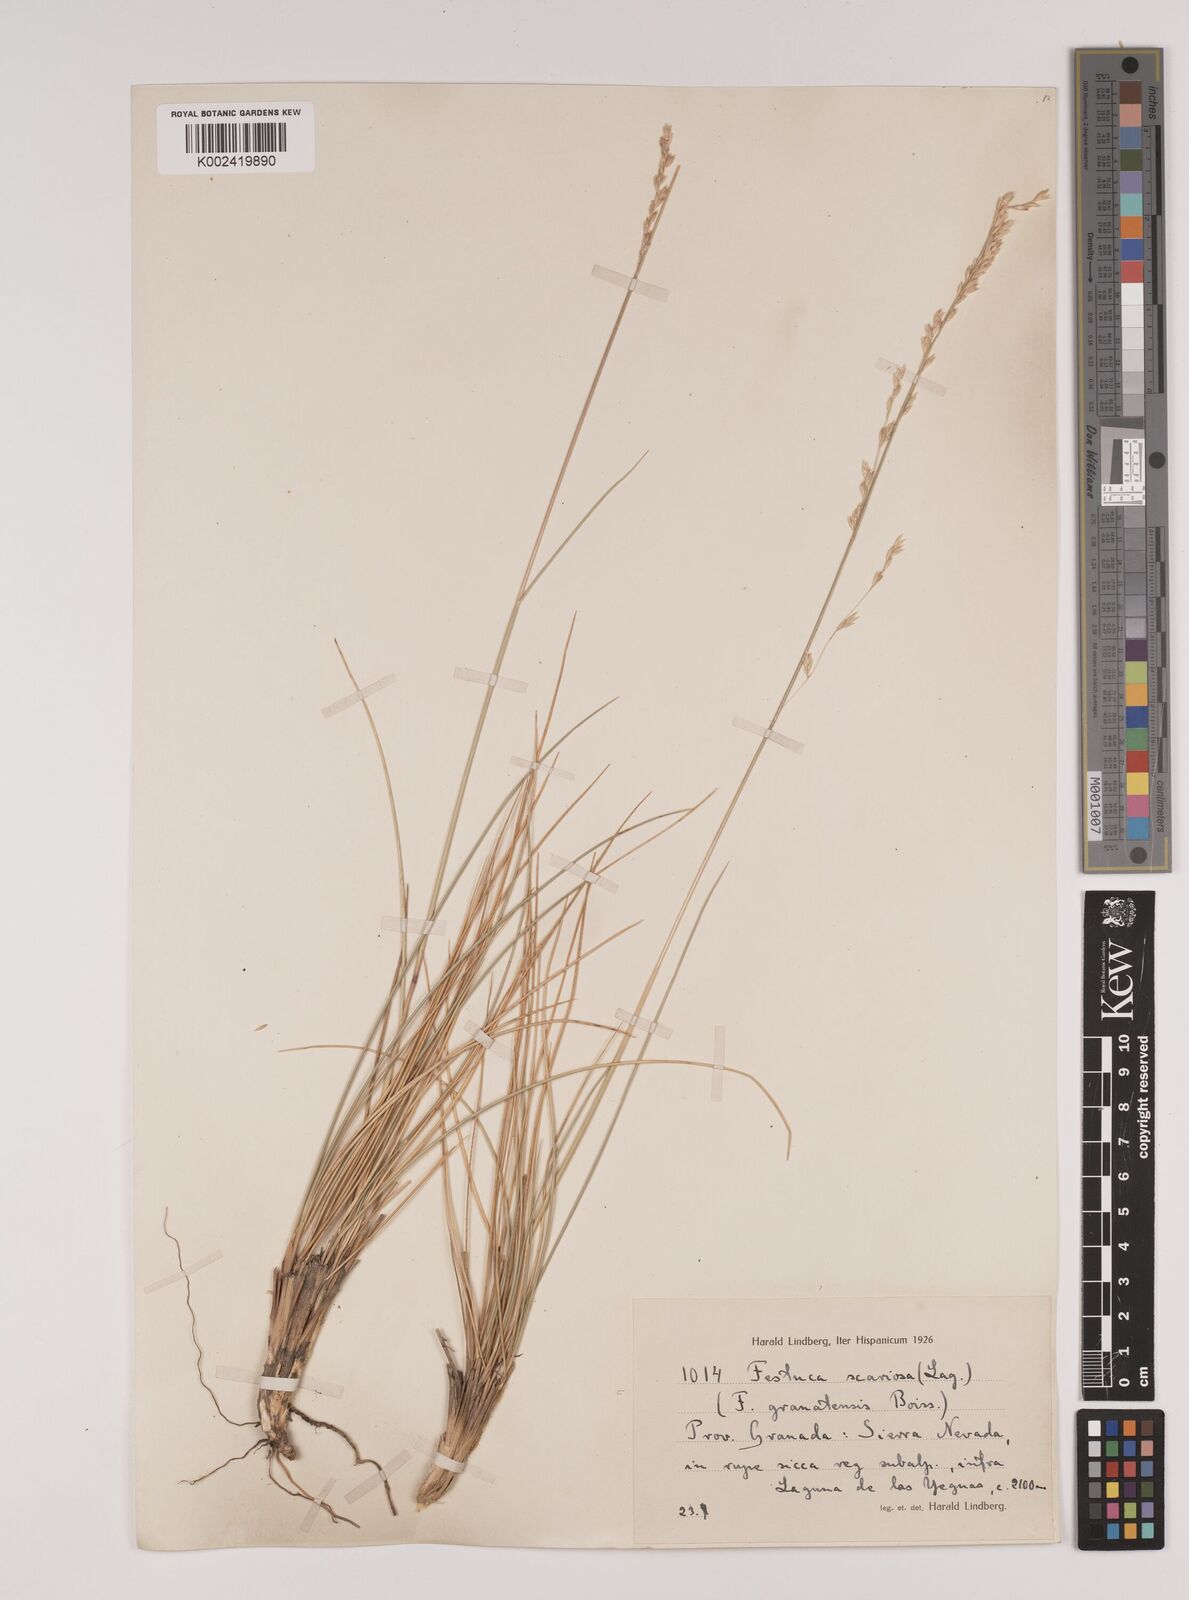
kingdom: Plantae
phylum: Tracheophyta
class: Liliopsida
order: Poales
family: Poaceae
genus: Festuca
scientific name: Festuca scariosa
